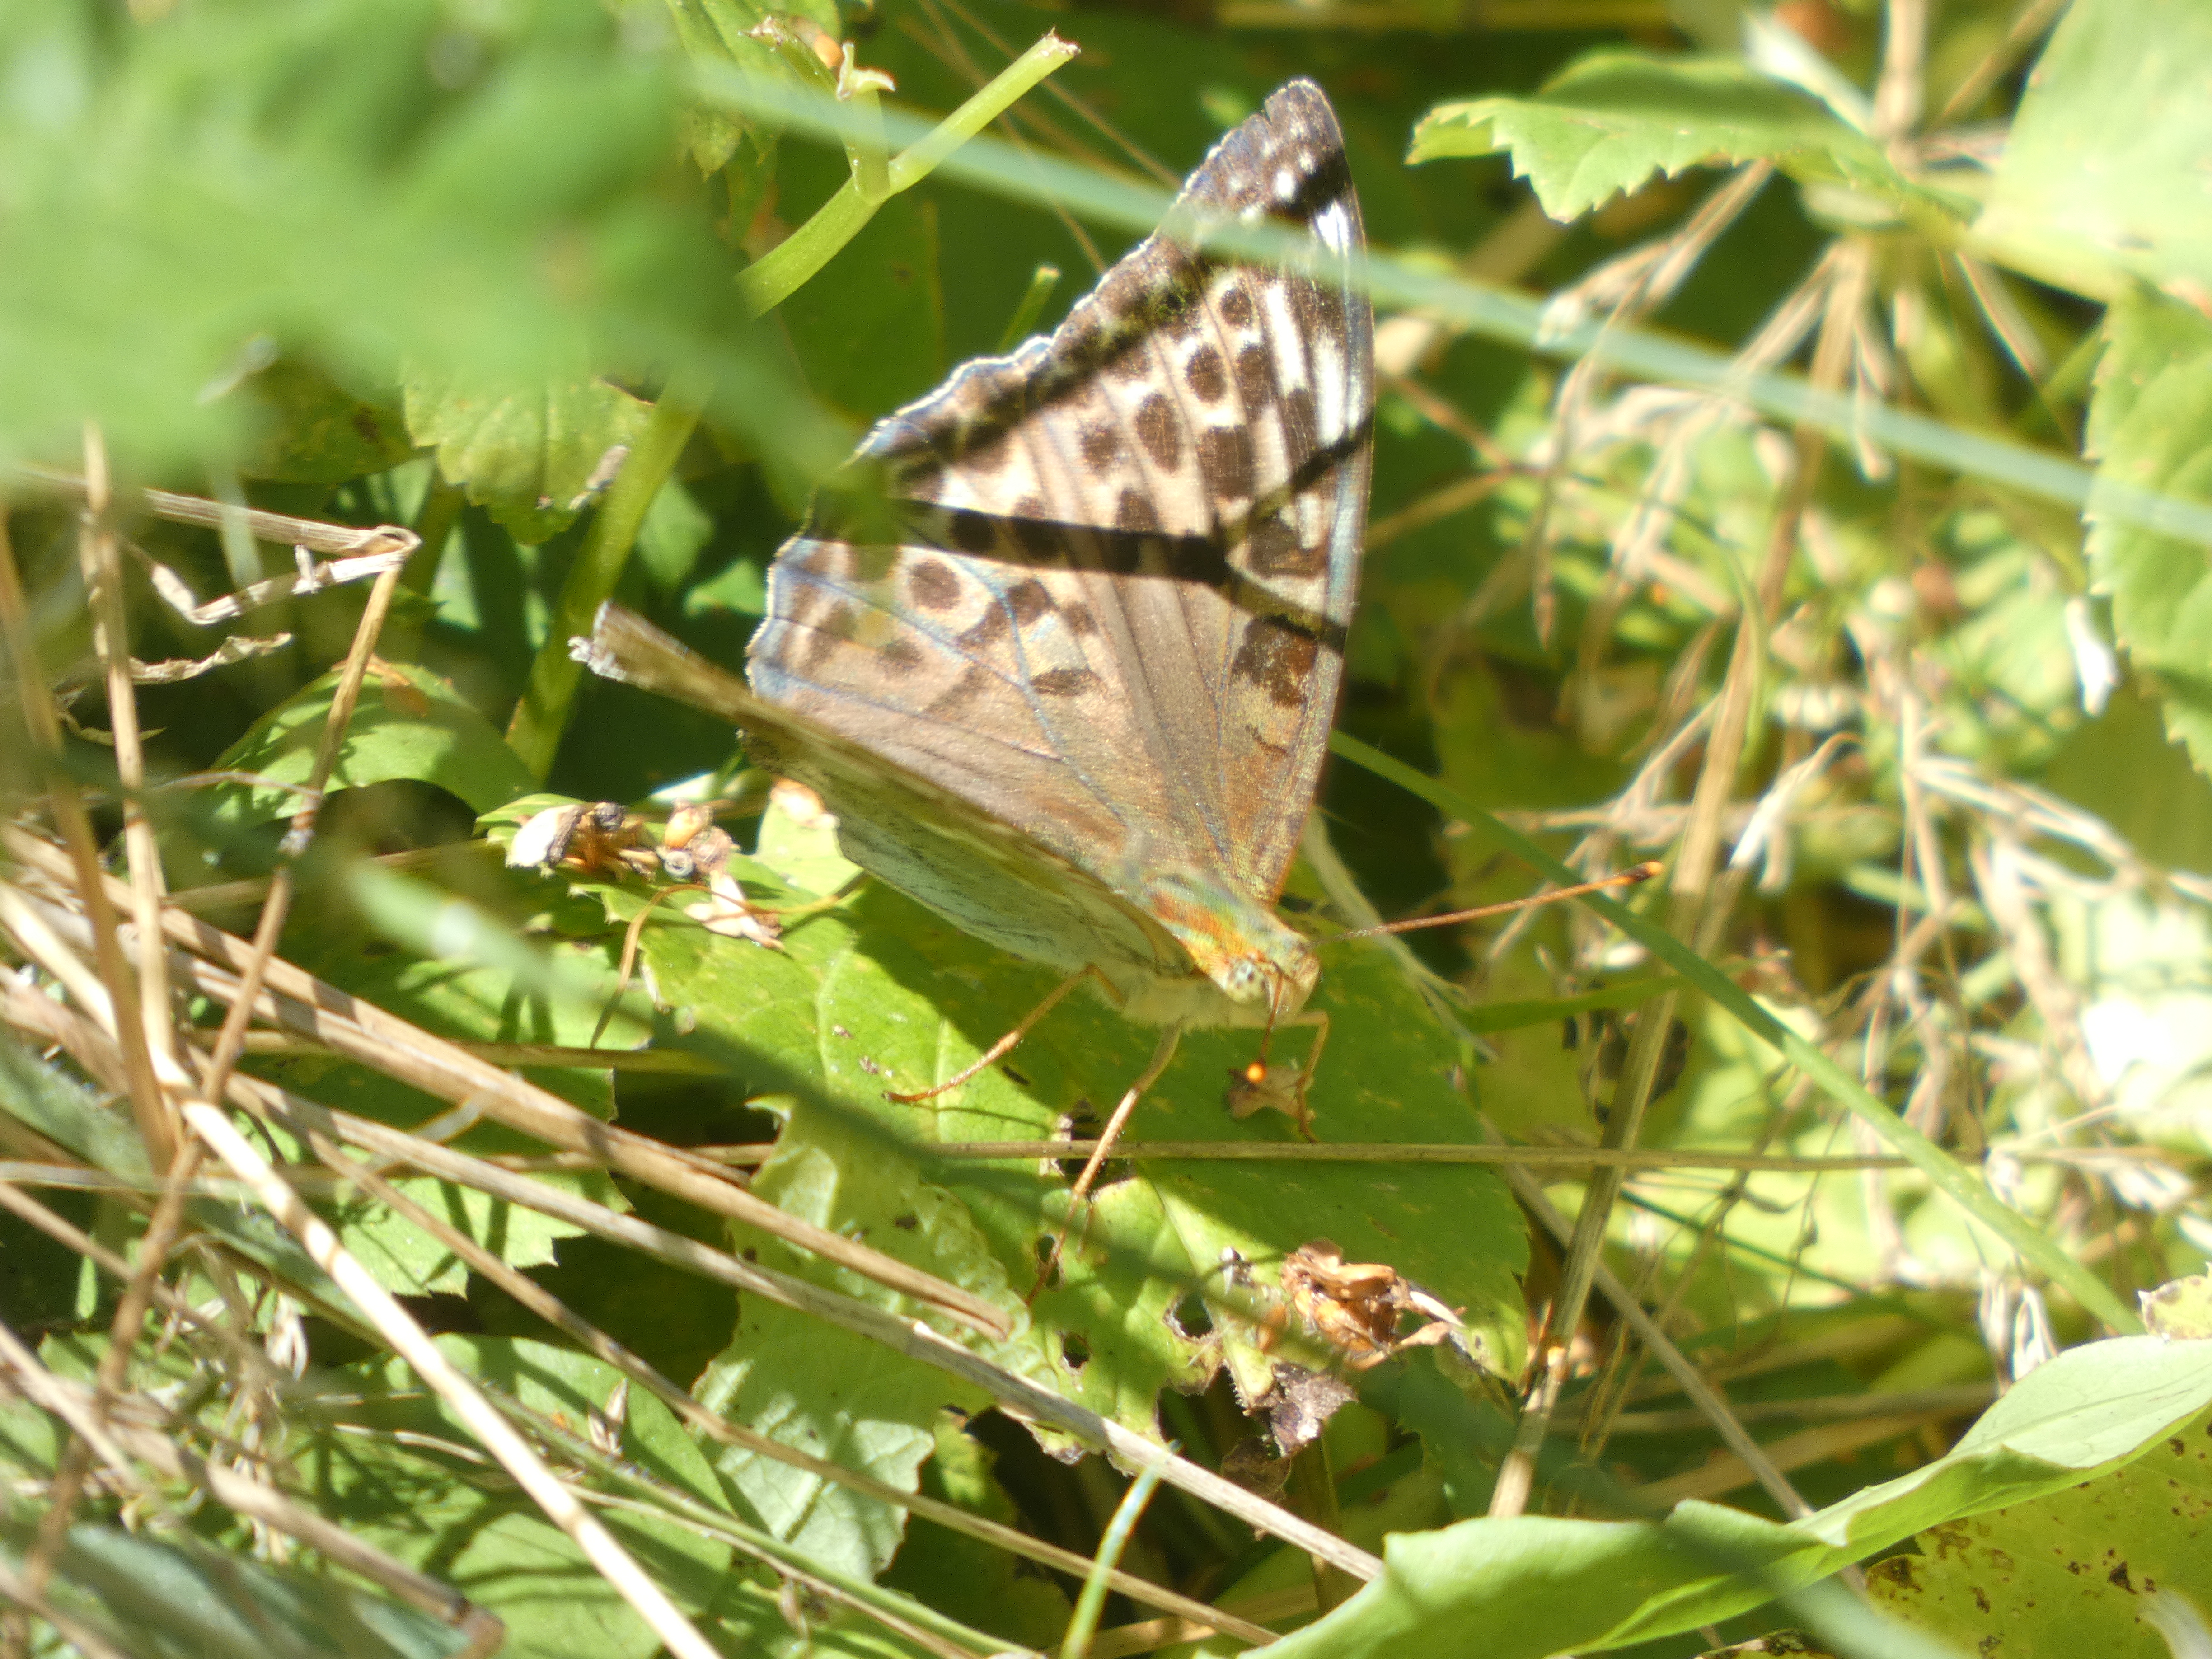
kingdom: Animalia
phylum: Arthropoda
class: Insecta
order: Lepidoptera
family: Nymphalidae
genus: Argynnis
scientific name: Argynnis paphia
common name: Kejserkåbe
